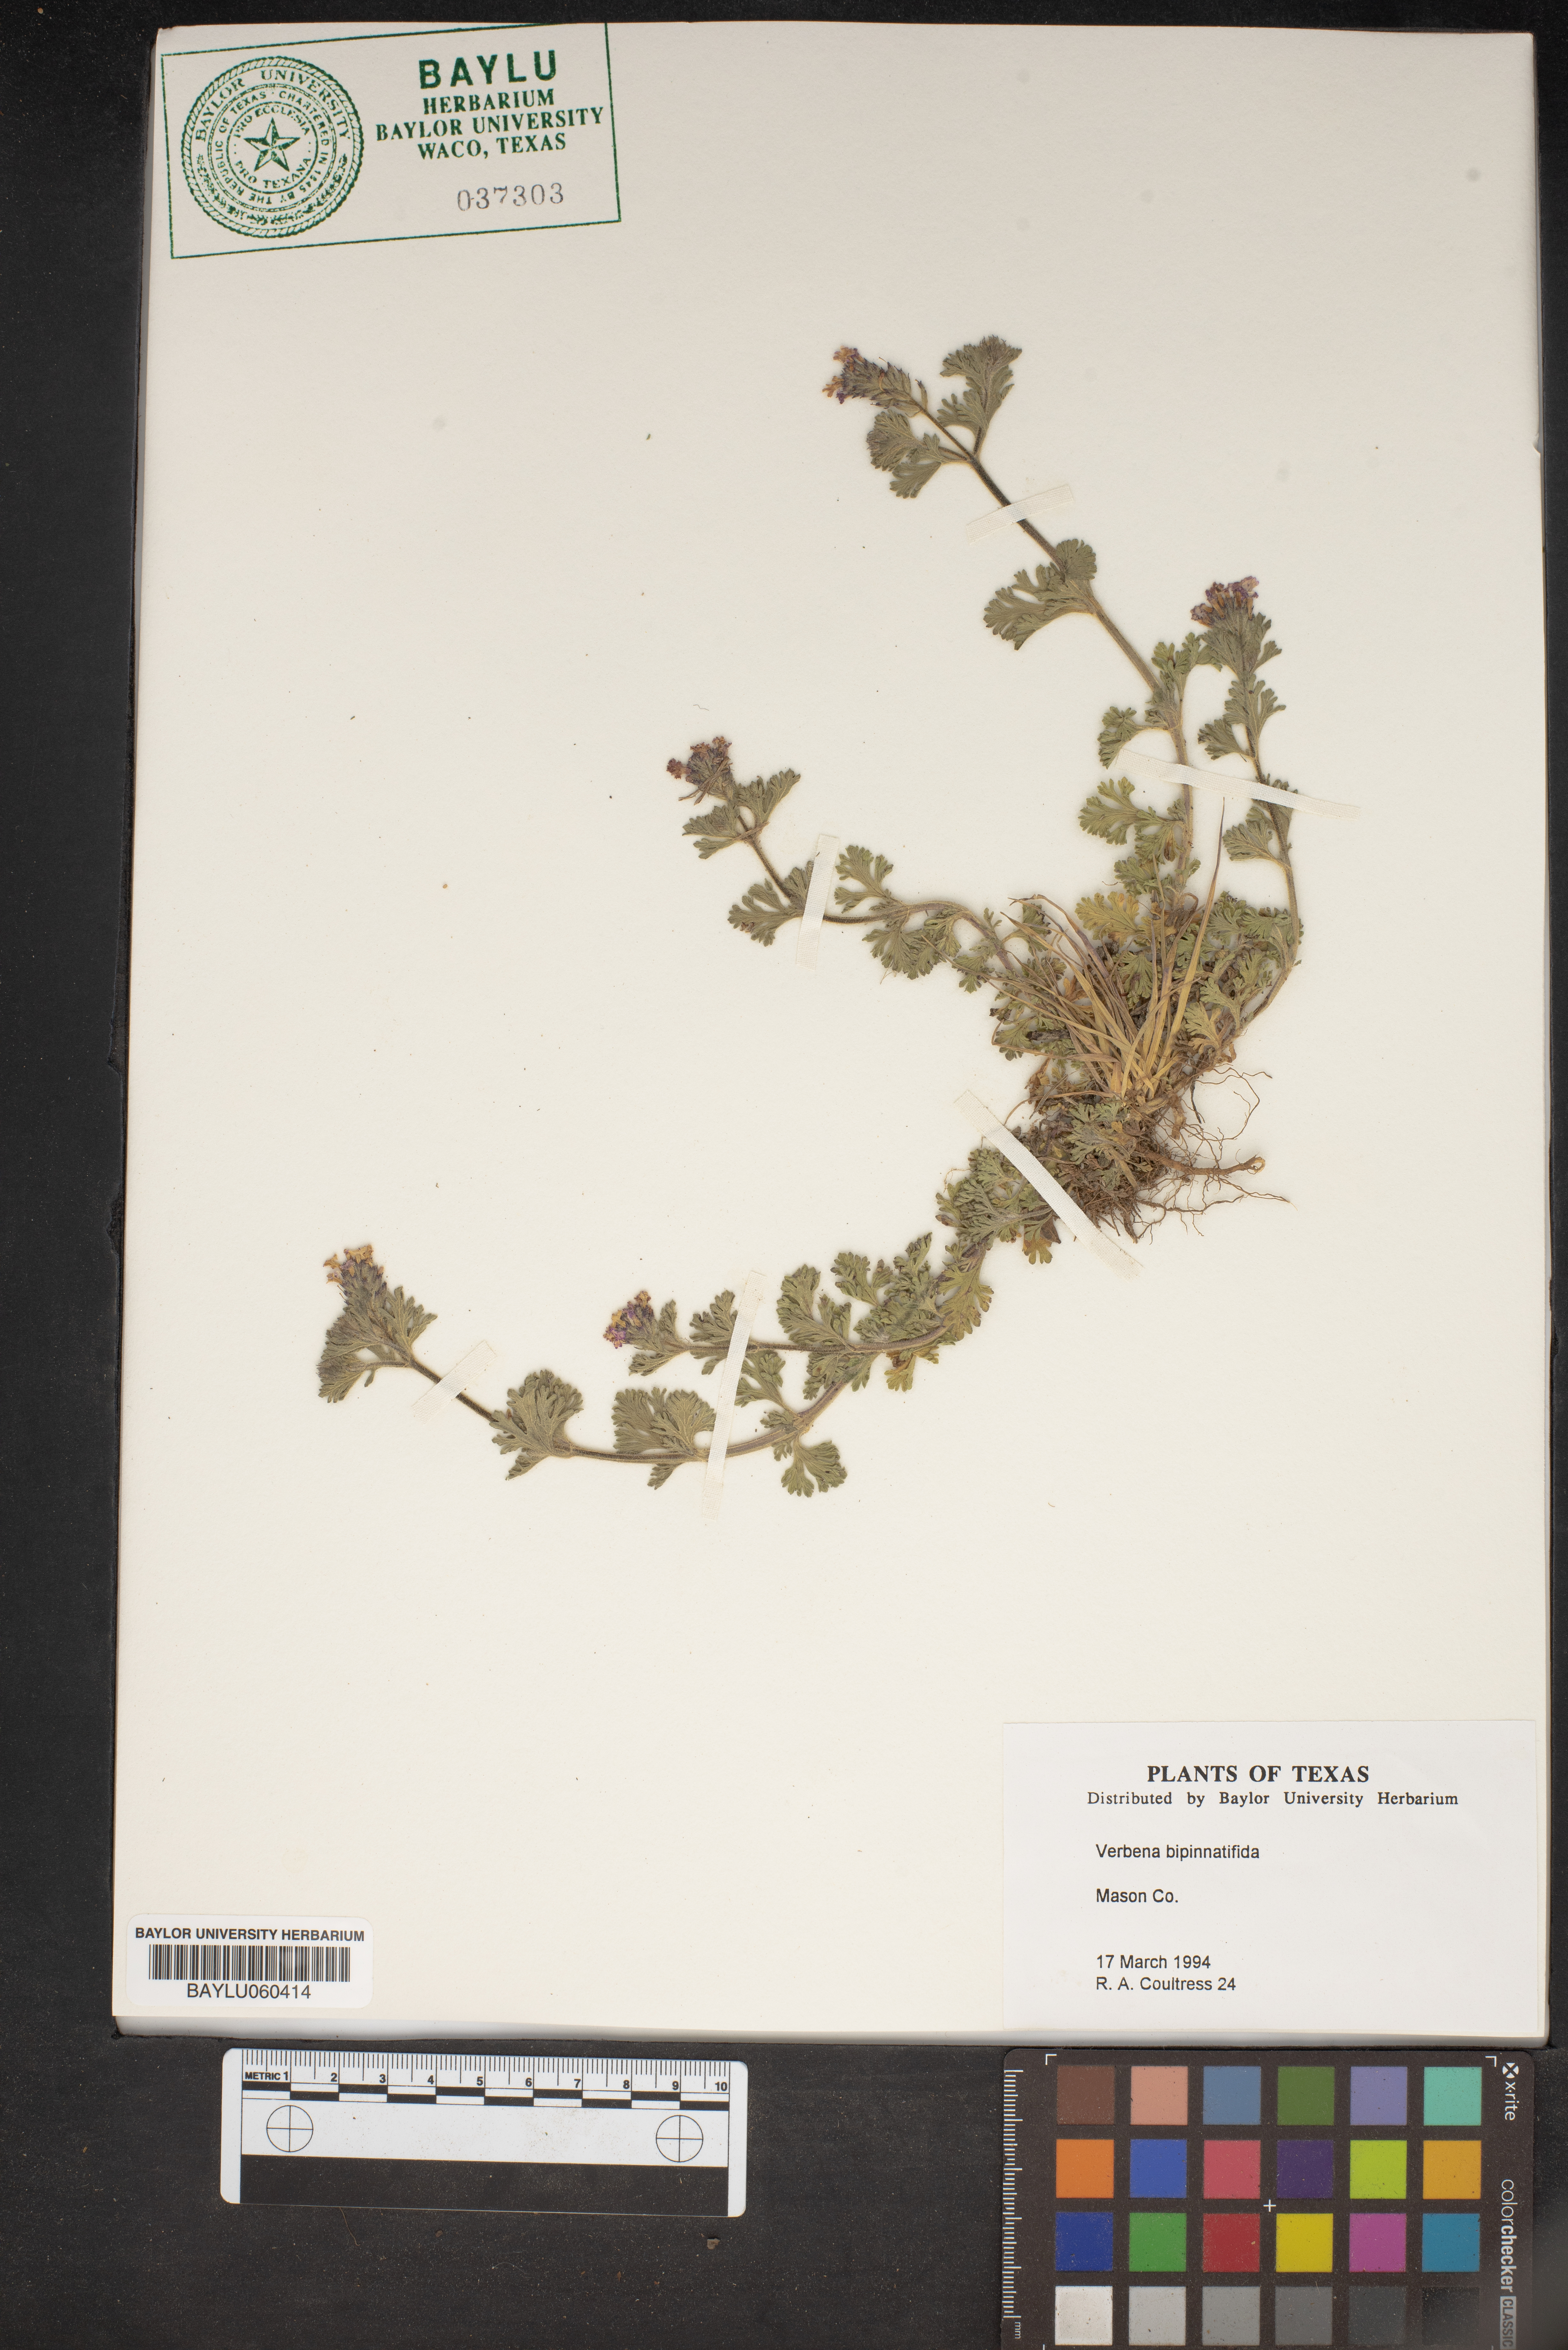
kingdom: Plantae
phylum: Tracheophyta
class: Magnoliopsida
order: Lamiales
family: Verbenaceae
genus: Verbena
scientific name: Verbena bipinnatifida
